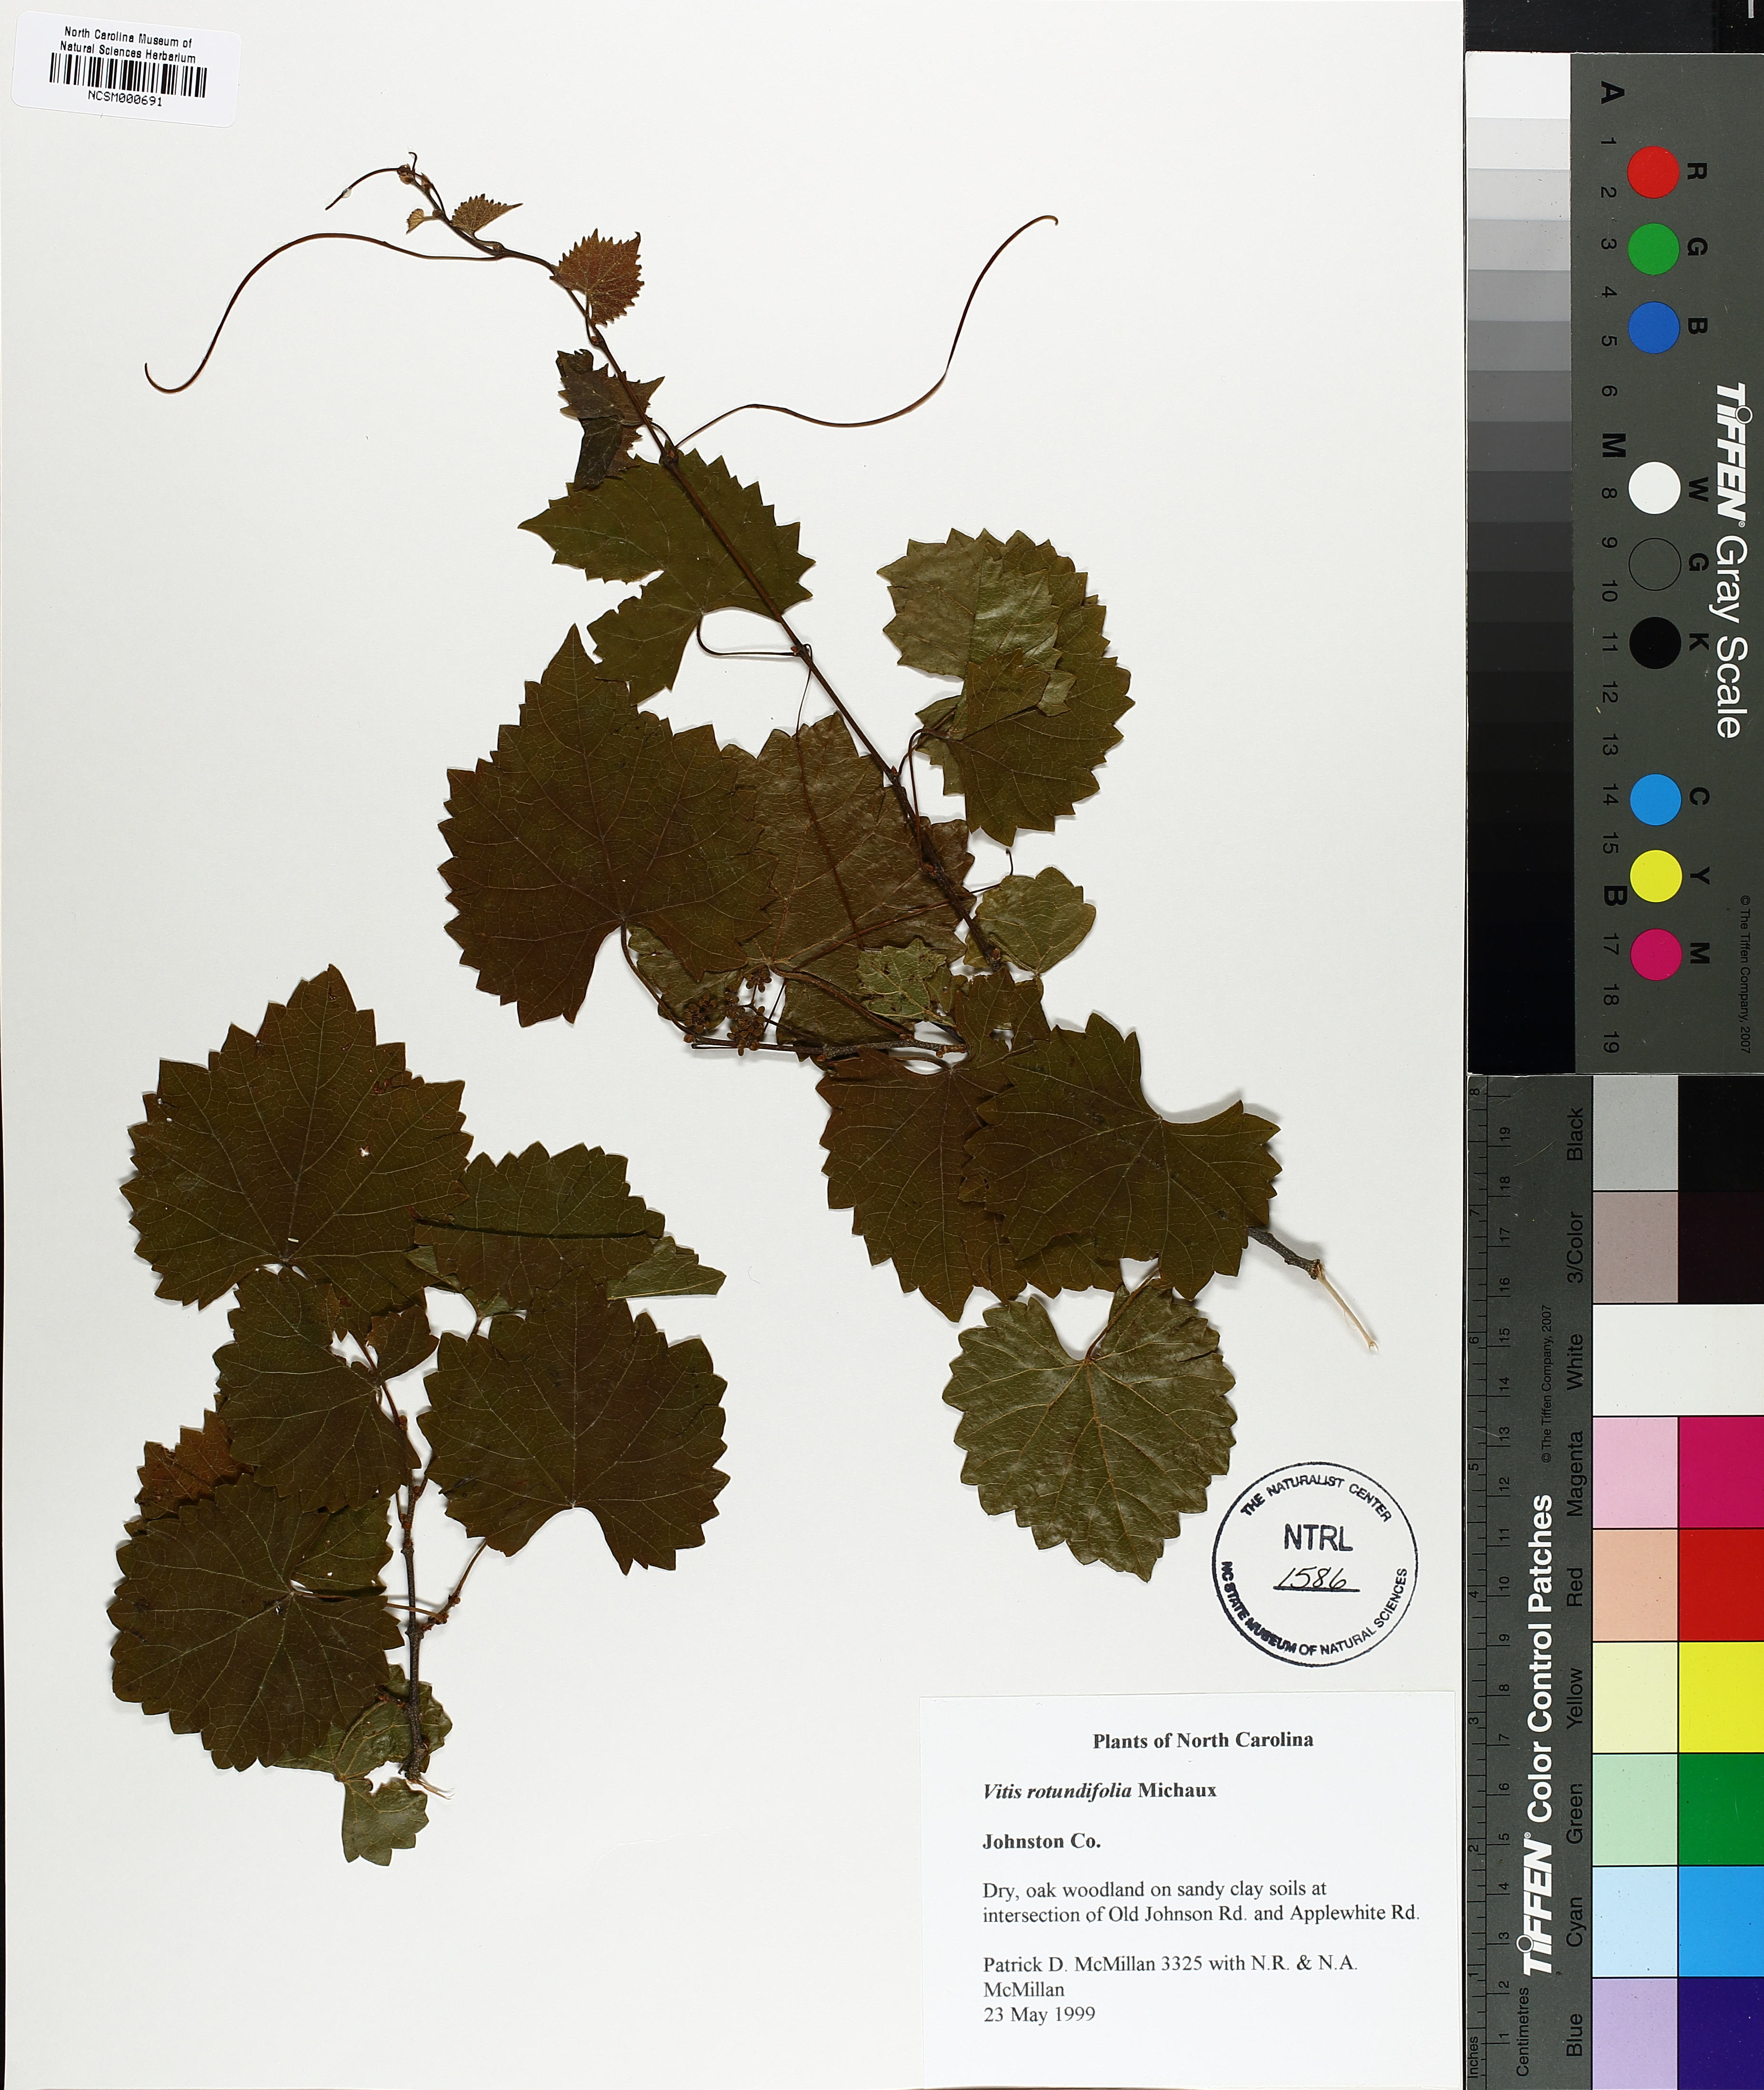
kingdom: Plantae
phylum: Tracheophyta
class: Magnoliopsida
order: Vitales
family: Vitaceae
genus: Vitis
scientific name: Vitis rotundifolia
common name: Muscadine grape
